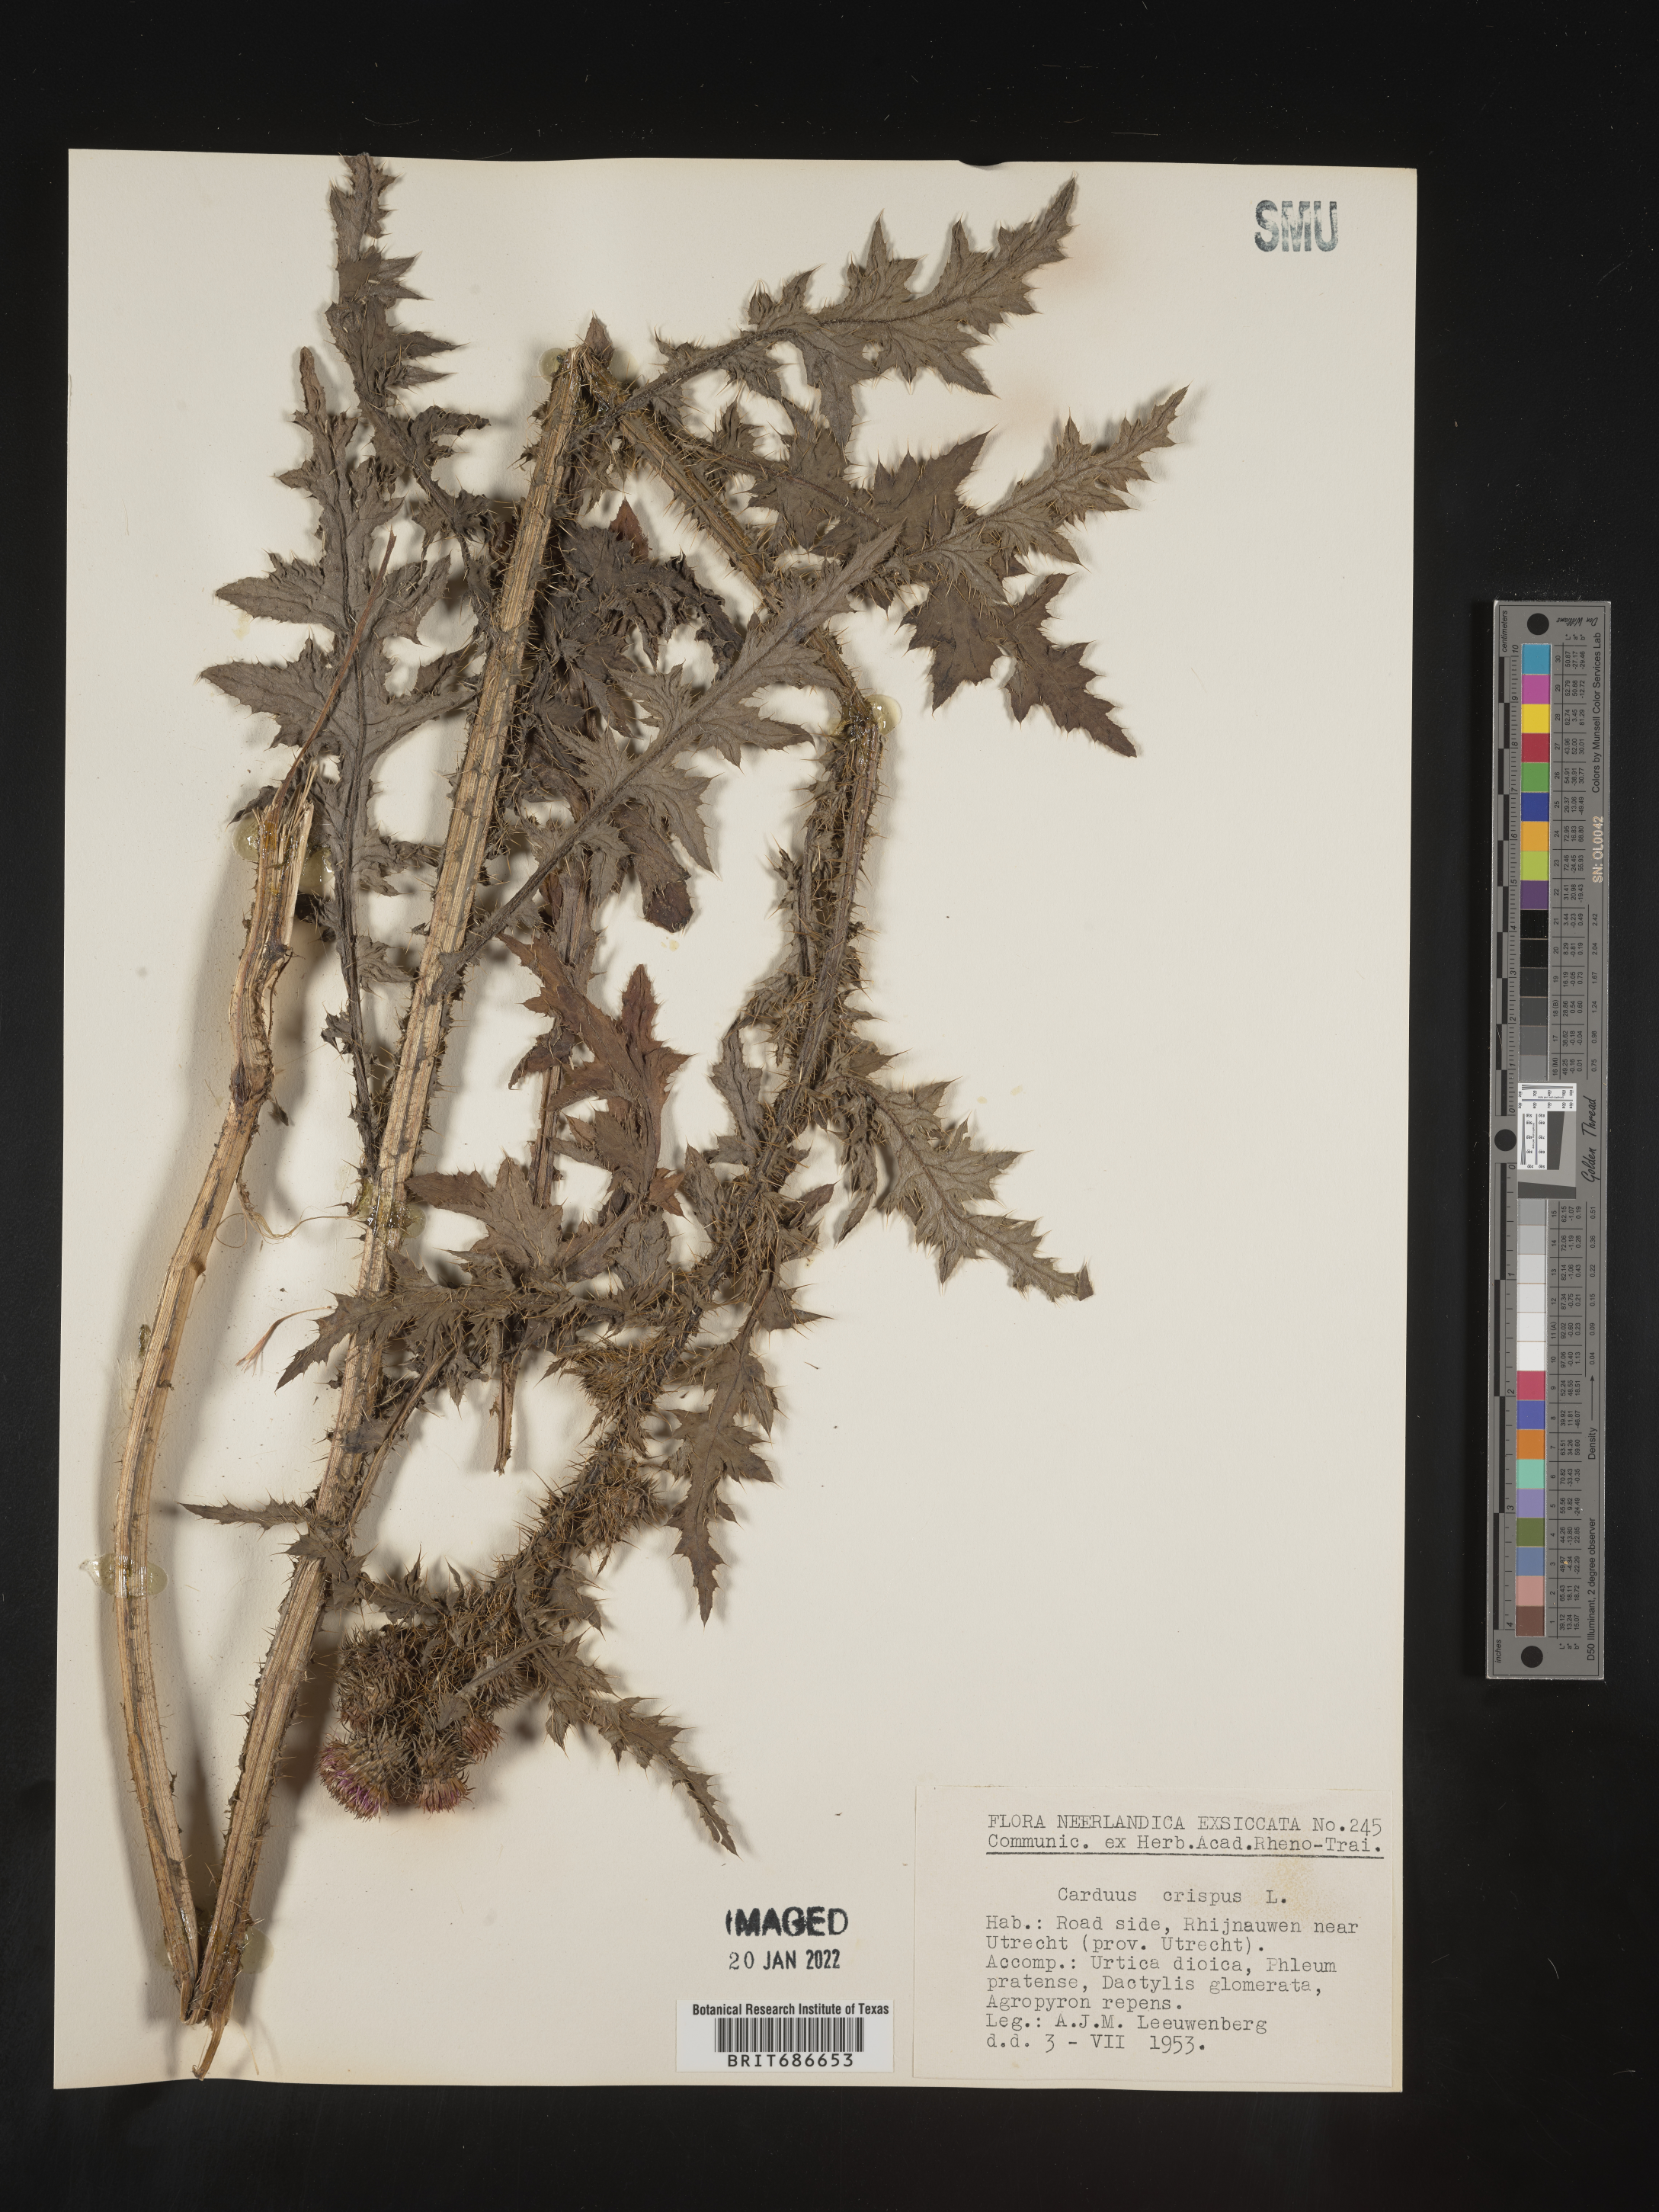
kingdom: Plantae
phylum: Tracheophyta
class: Magnoliopsida
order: Asterales
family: Asteraceae
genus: Carduus
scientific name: Carduus crispus
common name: Welted thistle
